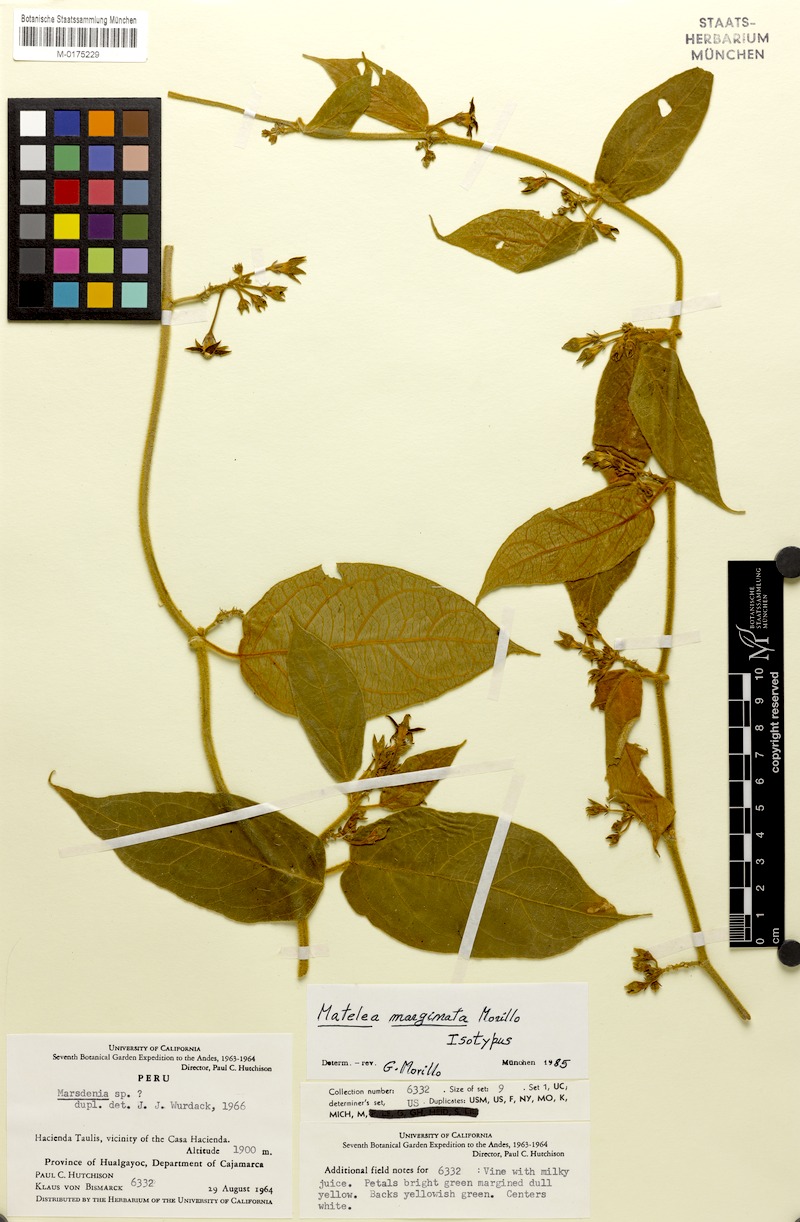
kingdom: Plantae
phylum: Tracheophyta
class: Magnoliopsida
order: Gentianales
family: Apocynaceae
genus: Lachnostoma
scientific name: Lachnostoma marginatum
